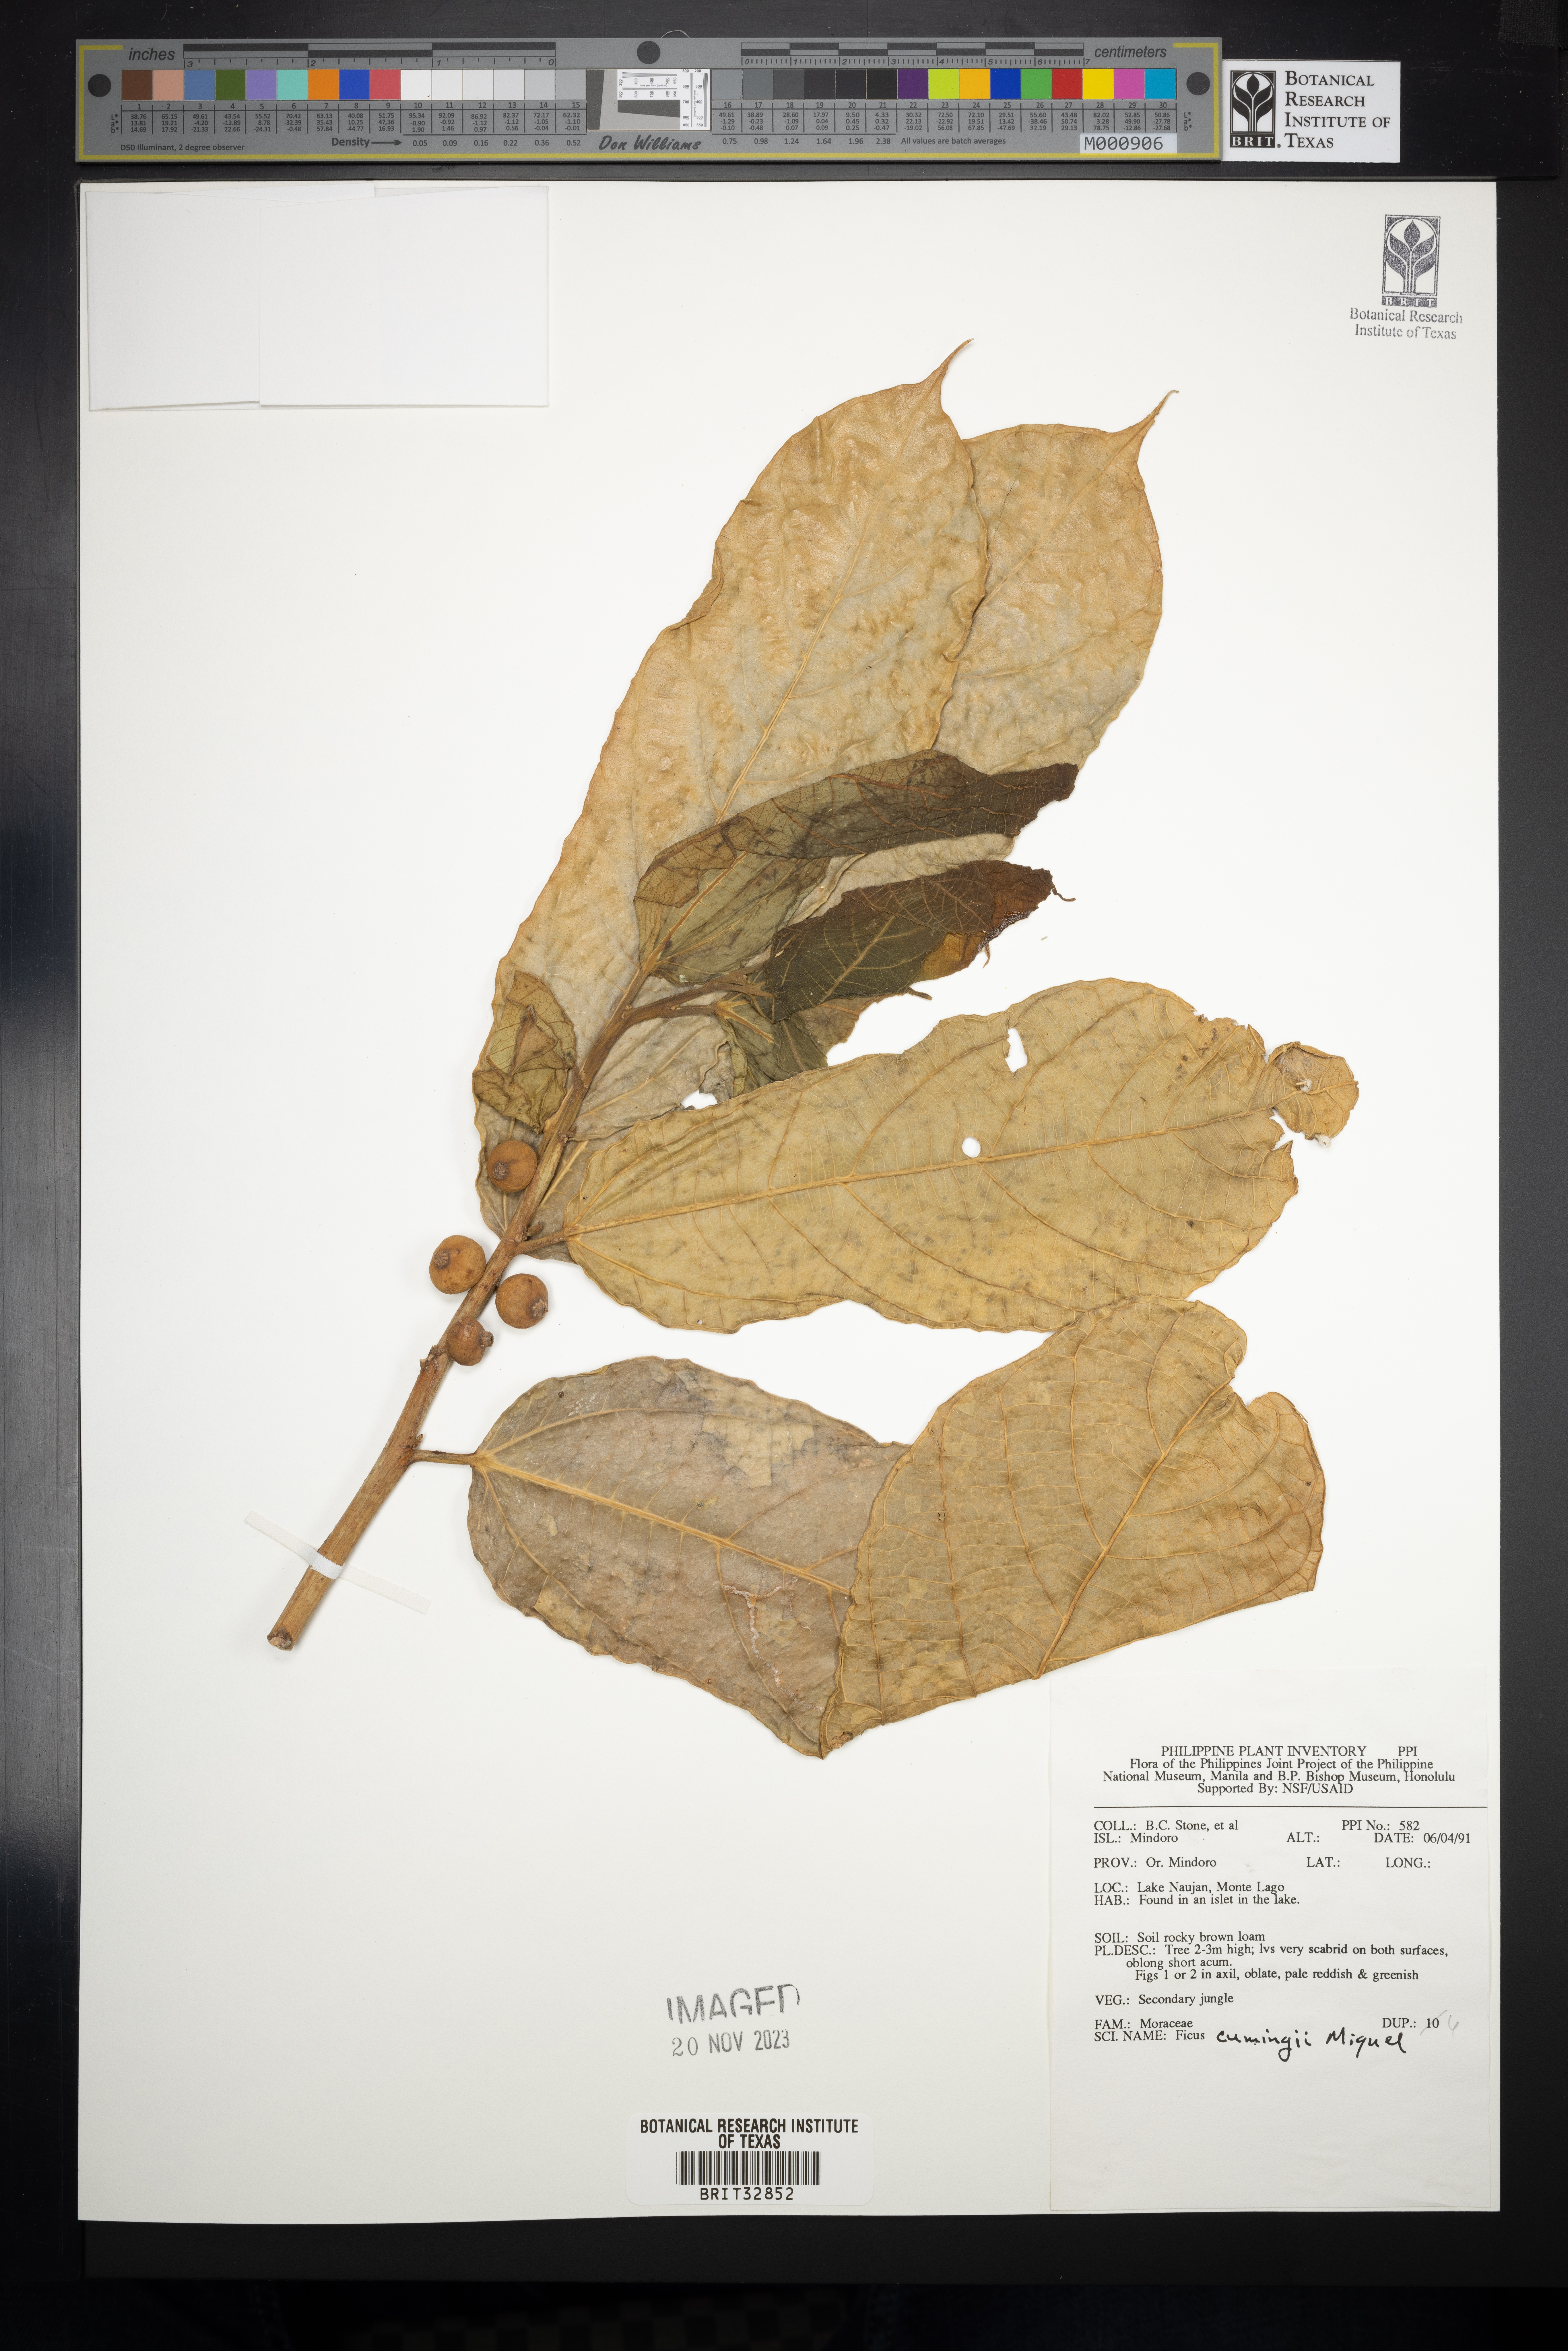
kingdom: Plantae
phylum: Tracheophyta
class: Magnoliopsida
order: Rosales
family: Moraceae
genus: Ficus
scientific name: Ficus cumingii
